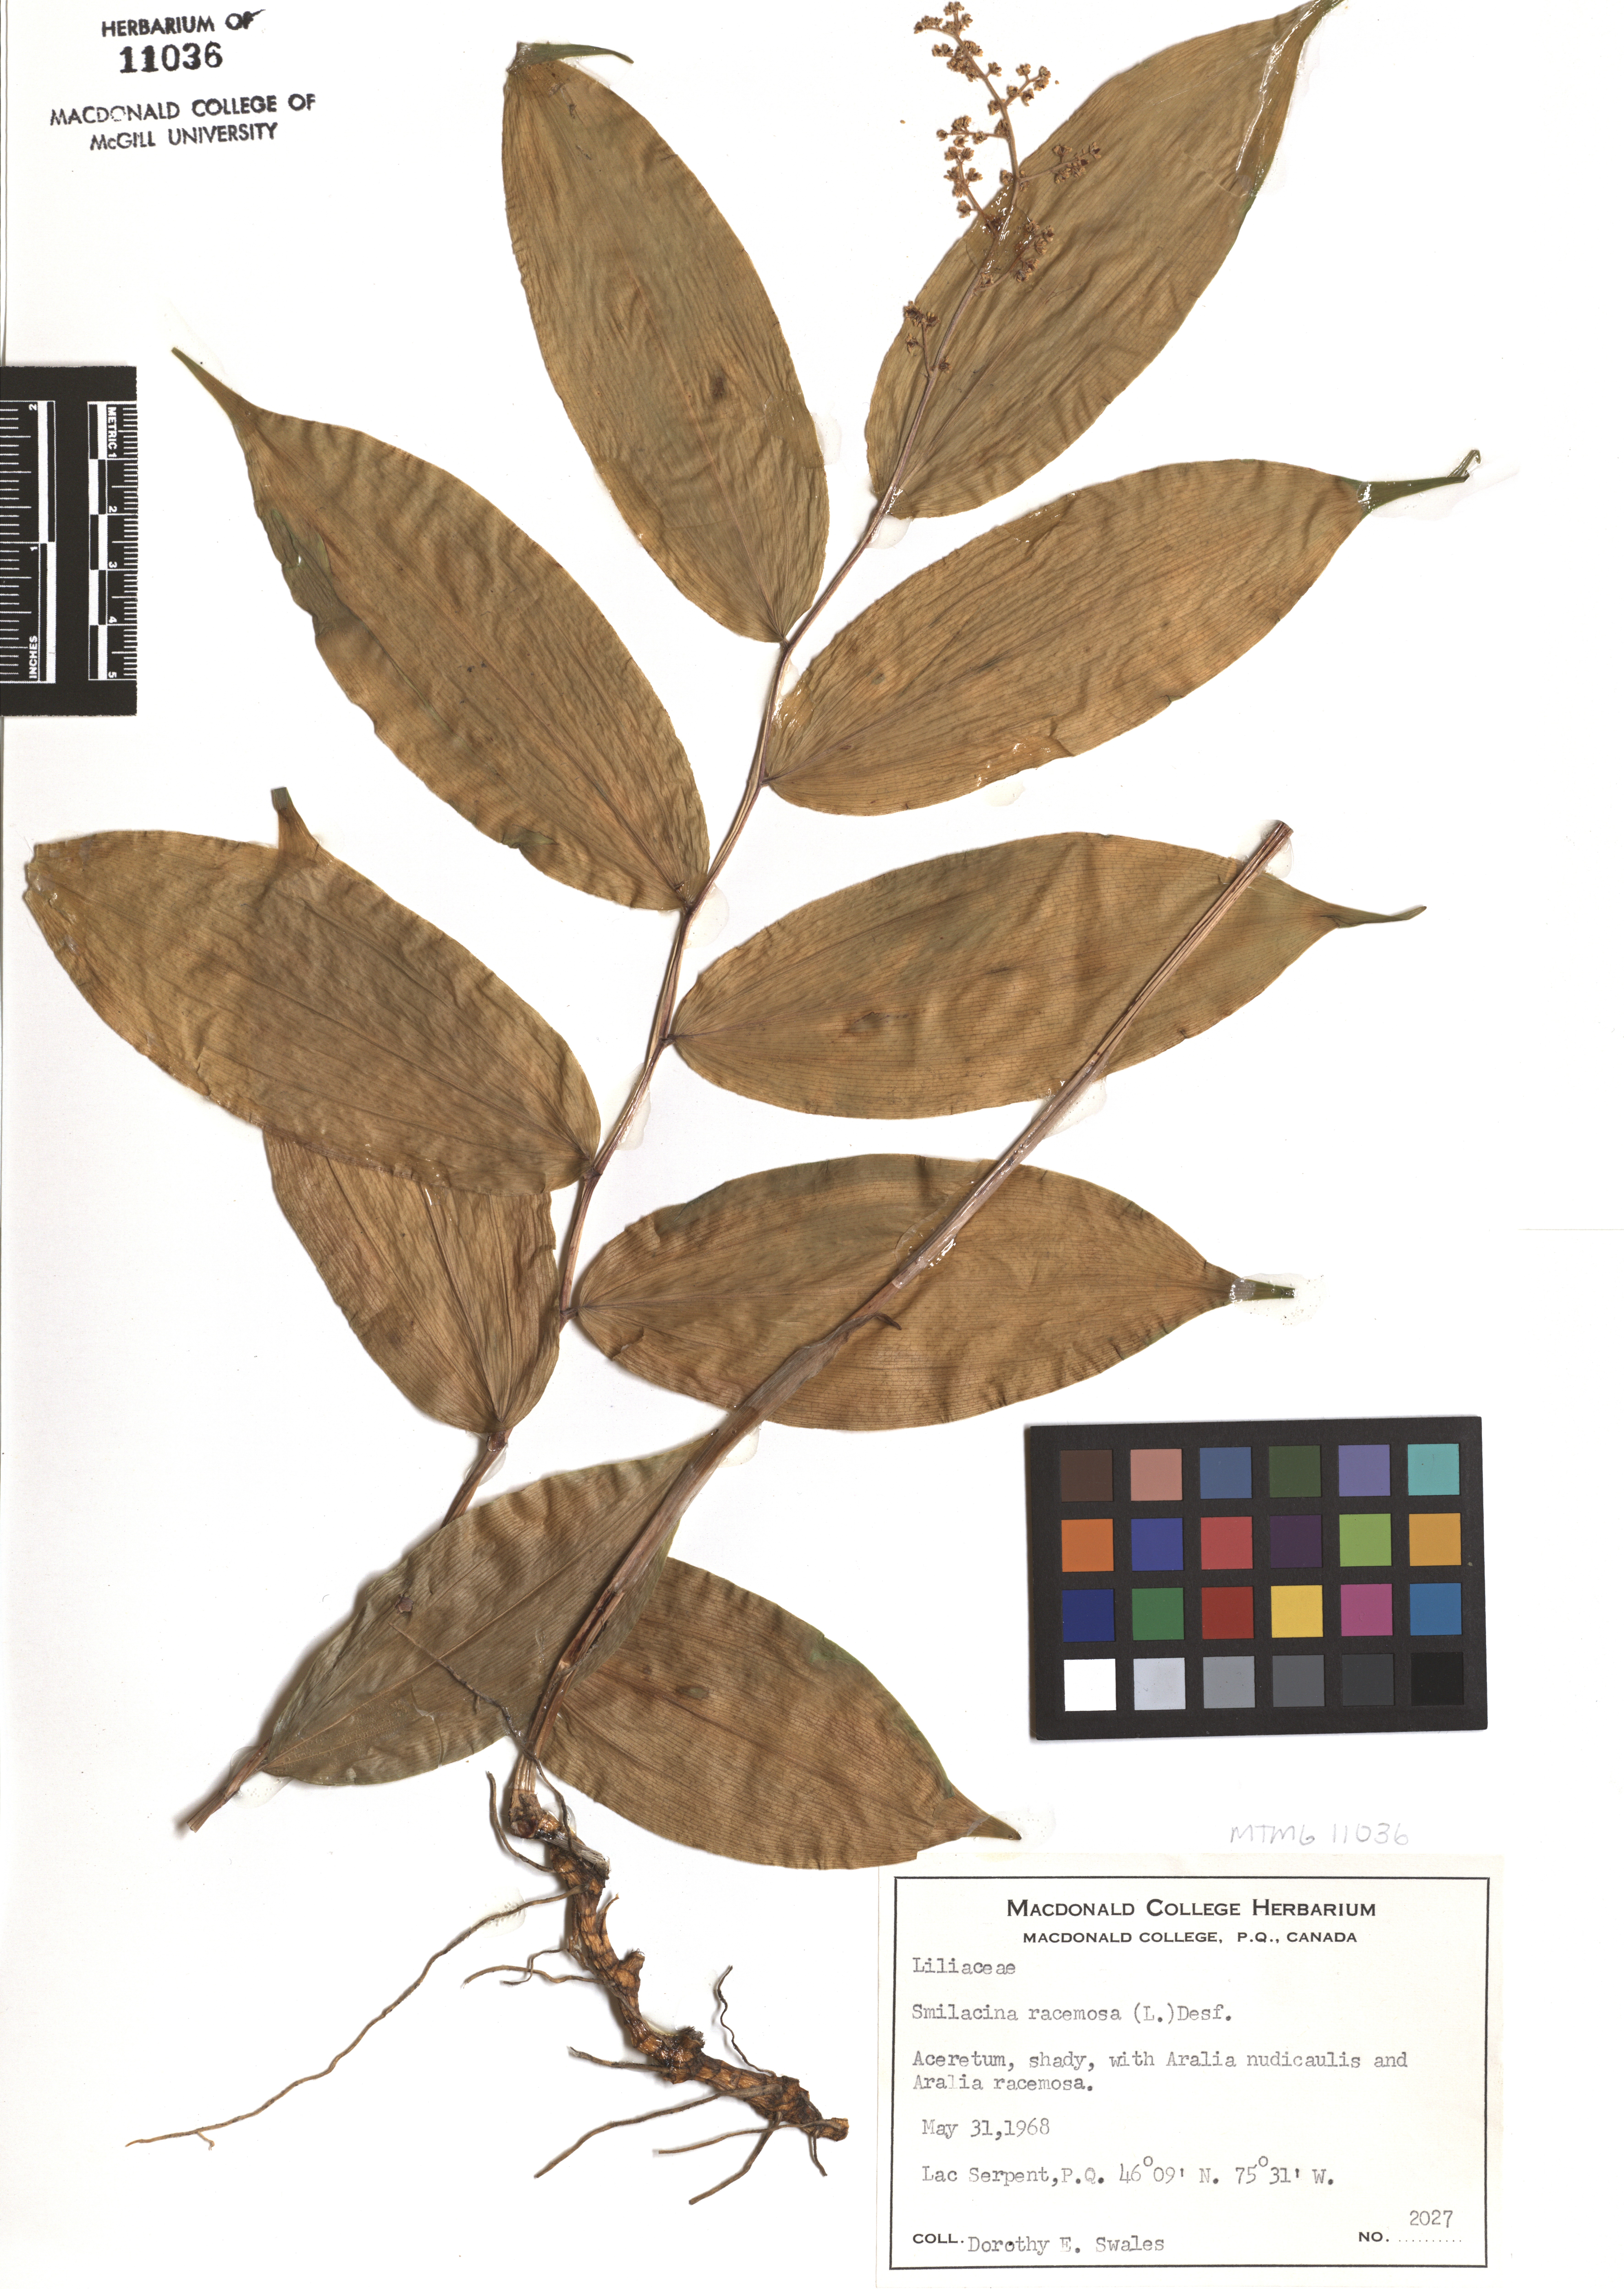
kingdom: Plantae
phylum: Tracheophyta
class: Liliopsida
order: Asparagales
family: Asparagaceae
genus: Maianthemum
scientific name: Maianthemum racemosum
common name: False spikenard
